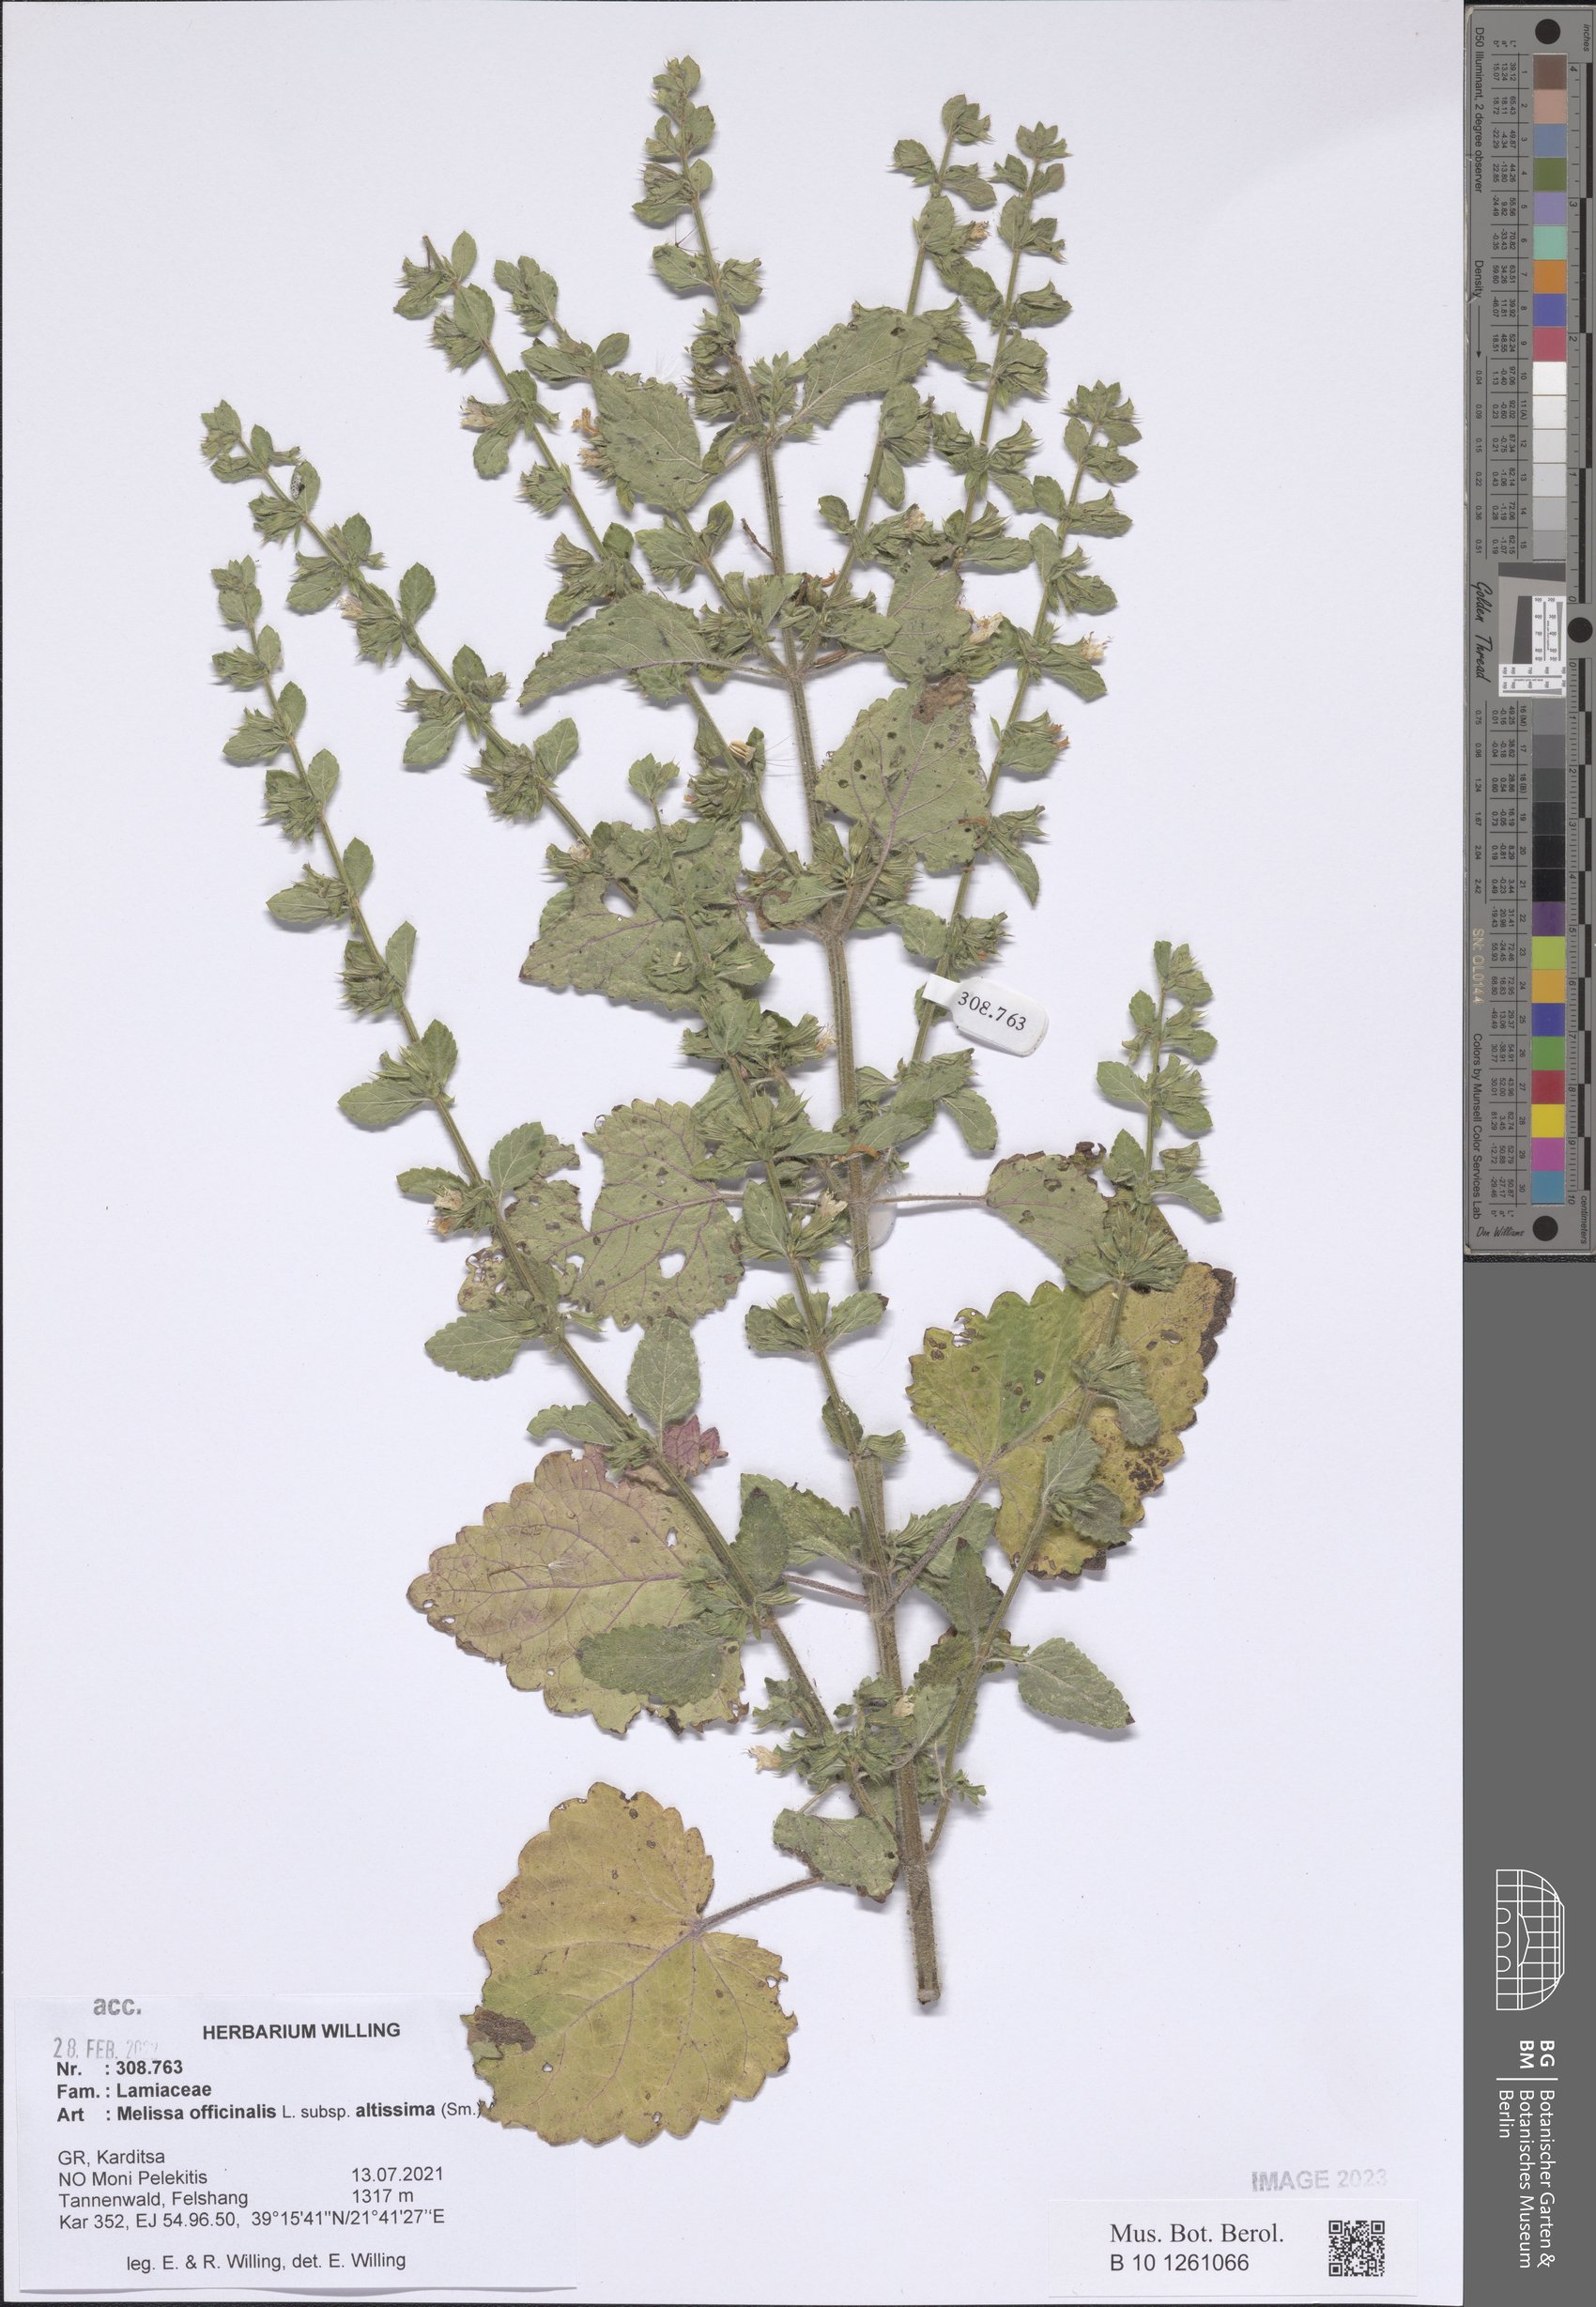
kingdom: Plantae
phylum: Tracheophyta
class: Magnoliopsida
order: Lamiales
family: Lamiaceae
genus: Melissa
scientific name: Melissa officinalis
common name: Balm
